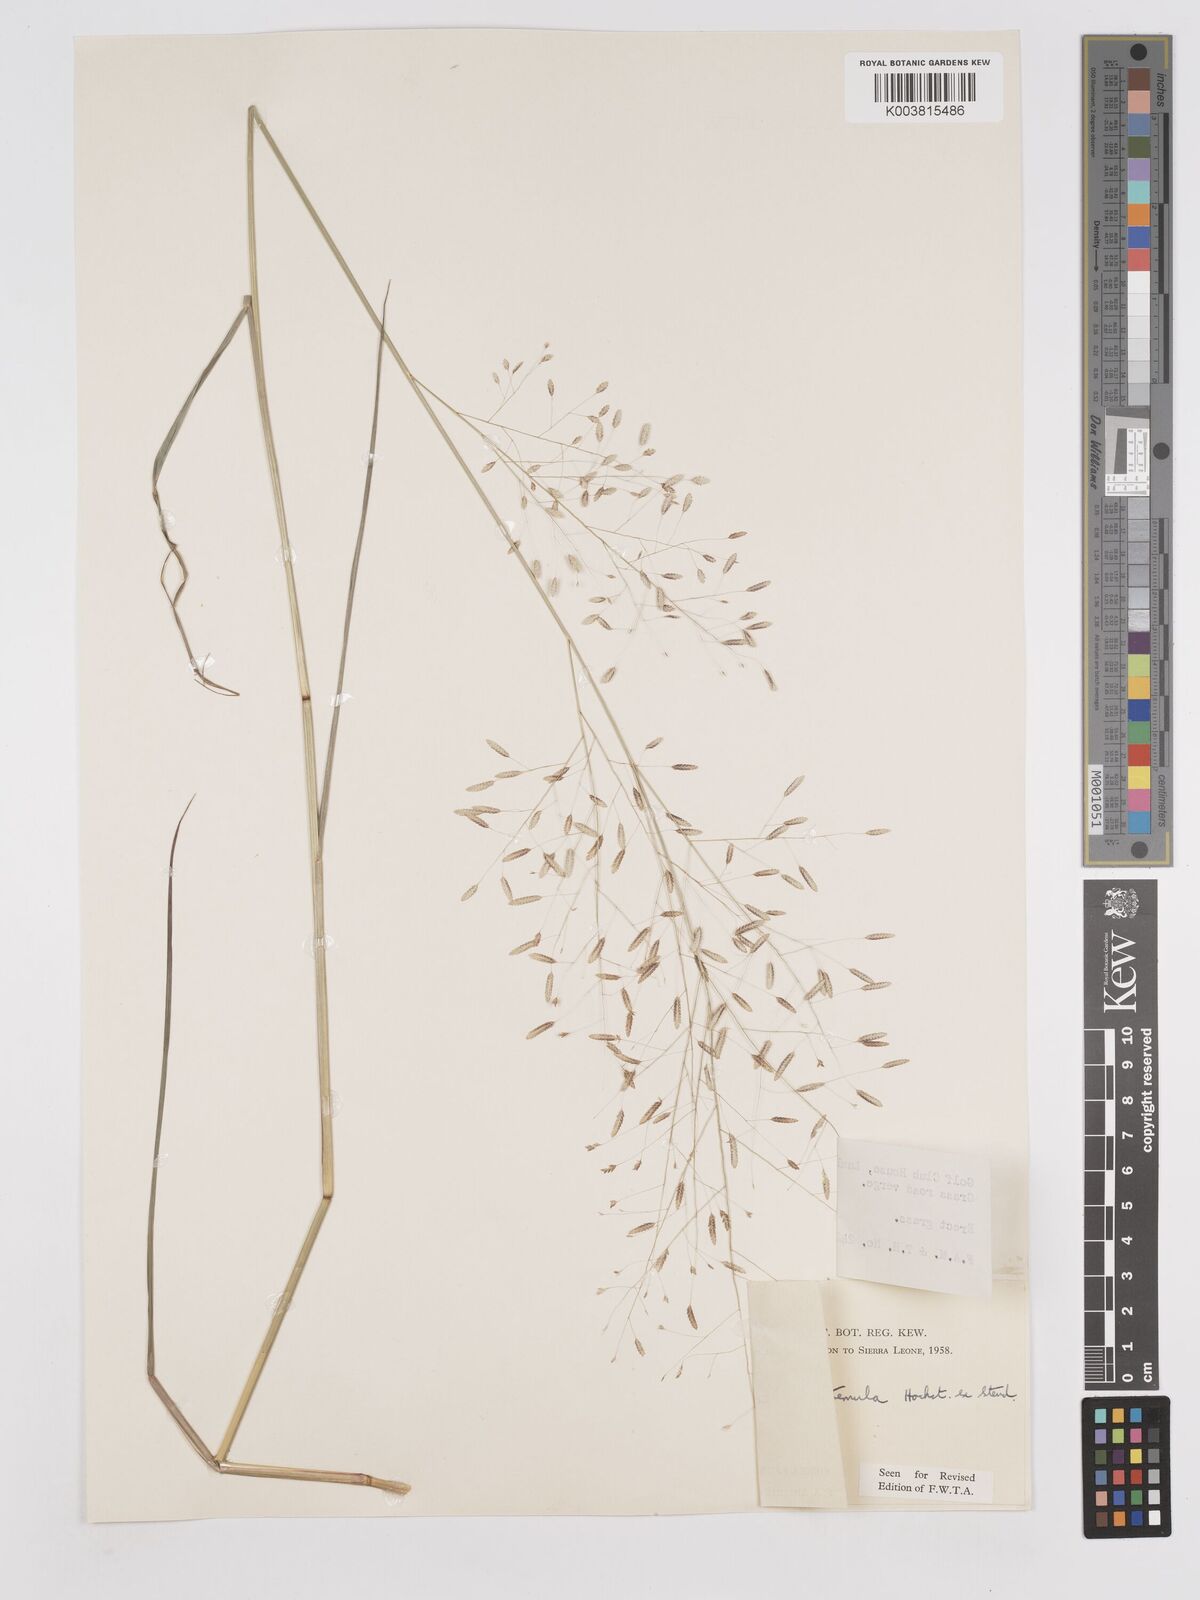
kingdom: Plantae
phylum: Tracheophyta
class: Liliopsida
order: Poales
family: Poaceae
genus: Eragrostis
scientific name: Eragrostis tremula
